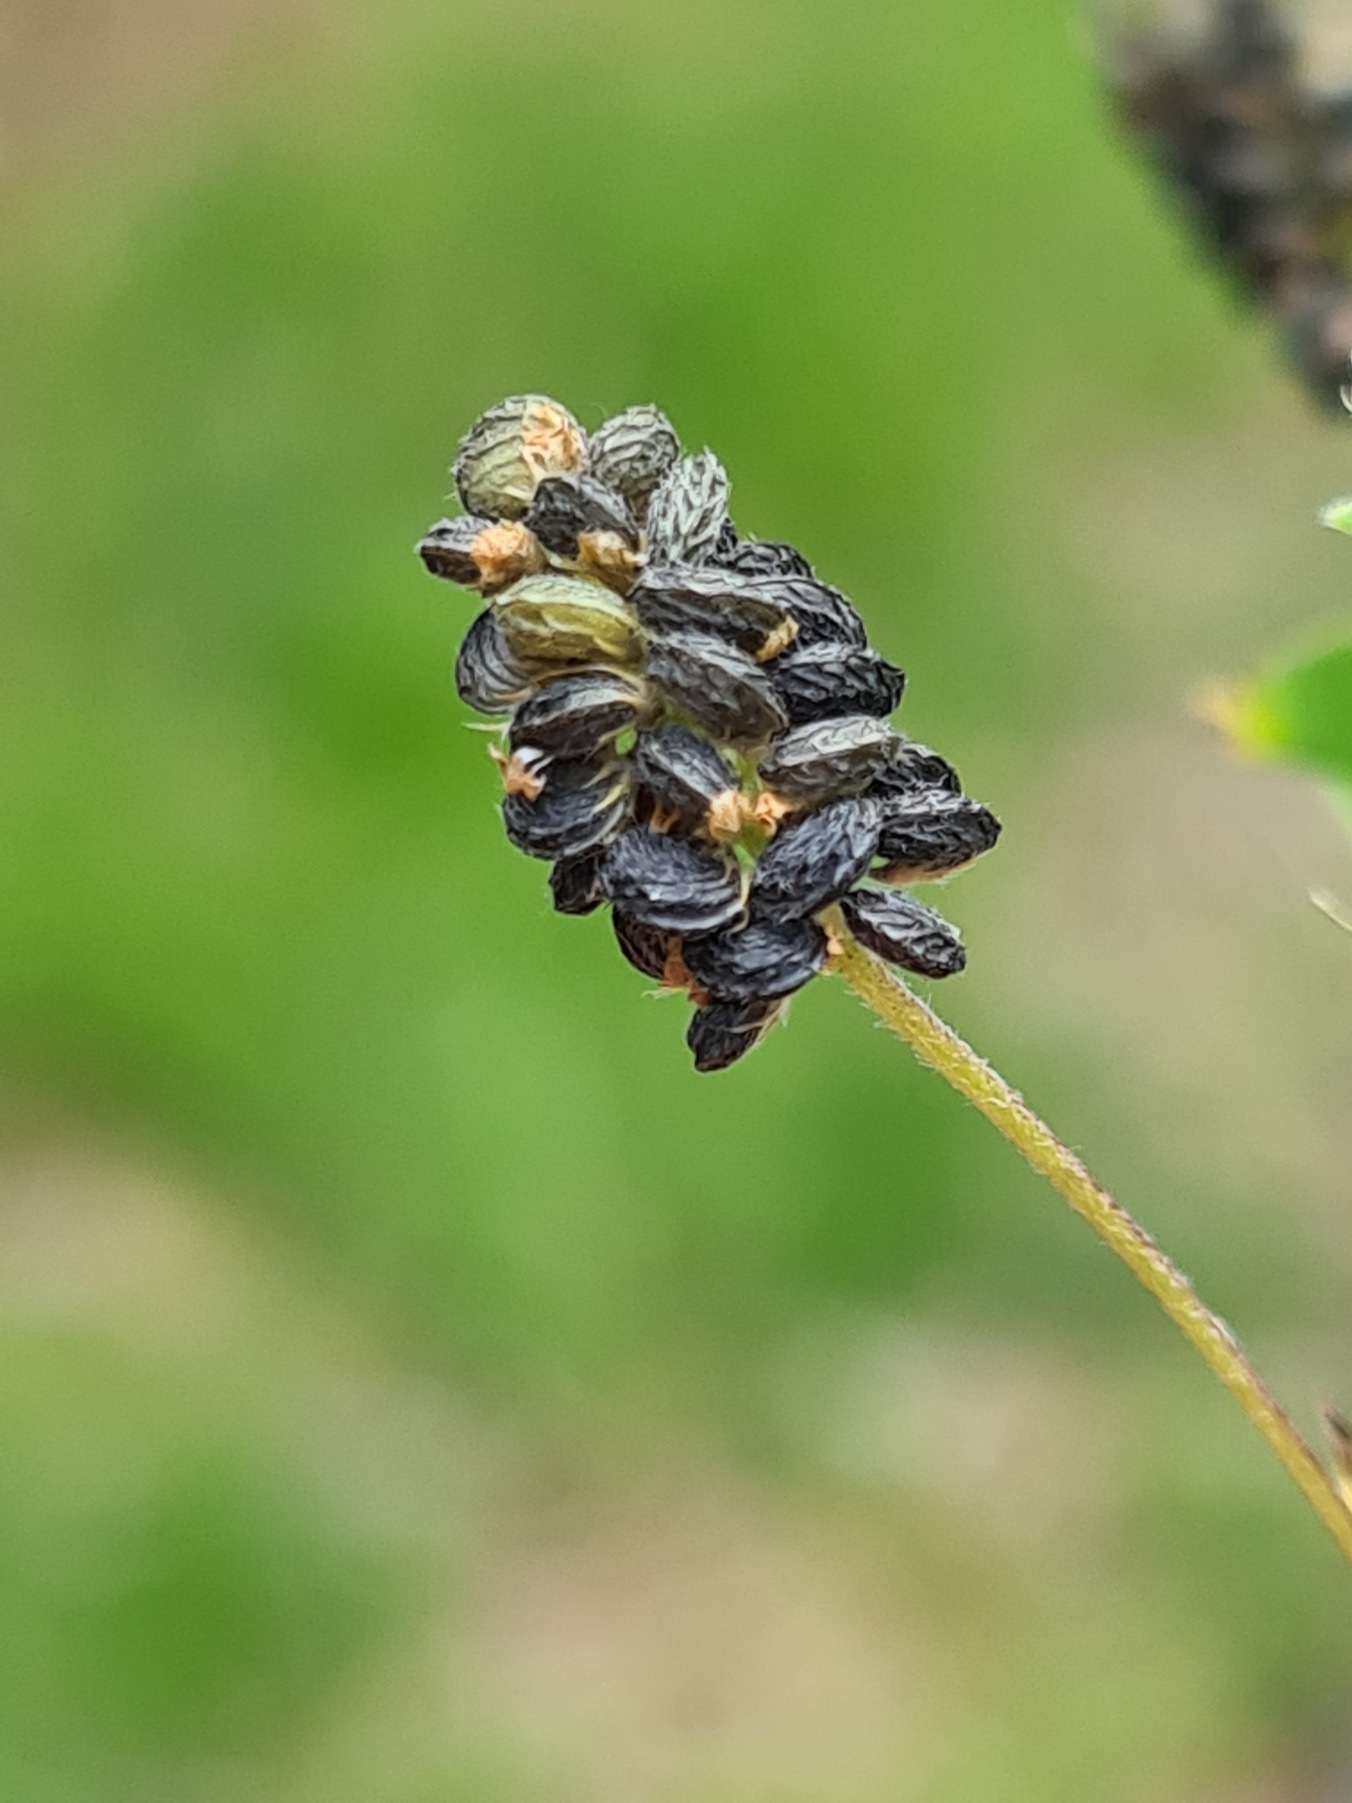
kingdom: Plantae
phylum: Tracheophyta
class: Magnoliopsida
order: Fabales
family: Fabaceae
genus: Medicago
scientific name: Medicago lupulina
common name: Humle-sneglebælg
